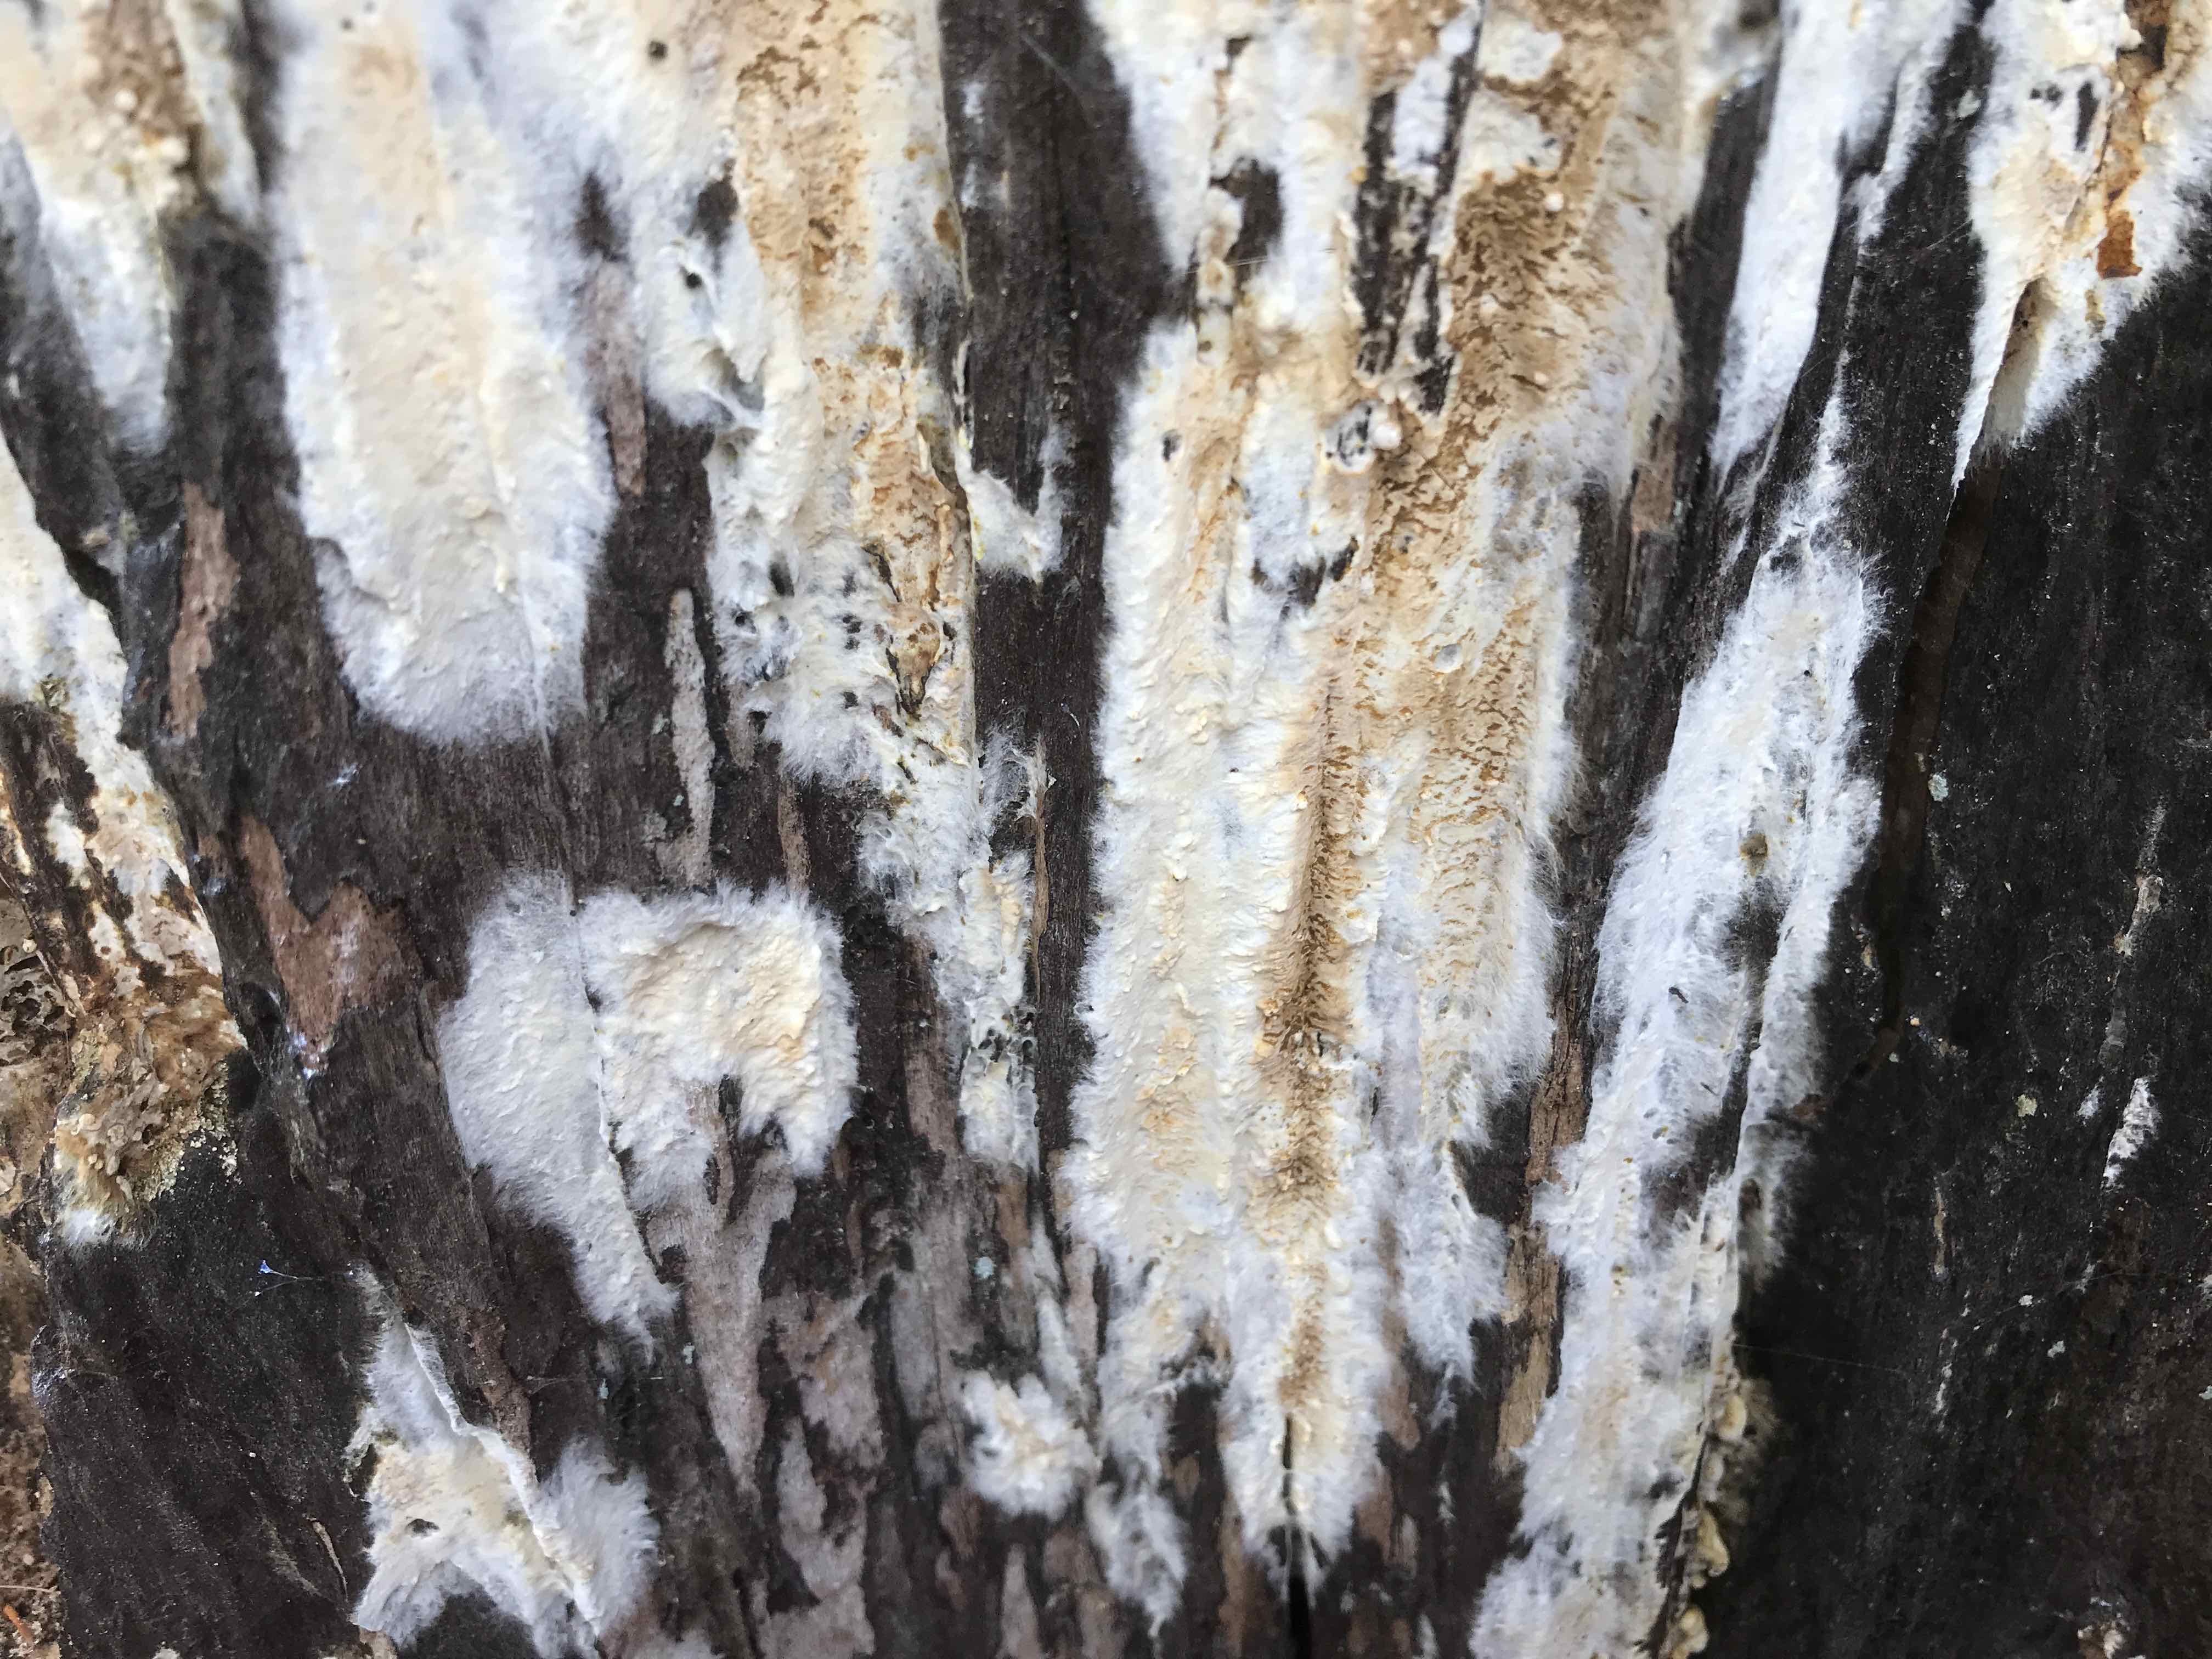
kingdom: Fungi
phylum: Basidiomycota
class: Agaricomycetes
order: Boletales
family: Coniophoraceae
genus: Coniophora
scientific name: Coniophora puteana
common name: gul tømmersvamp
